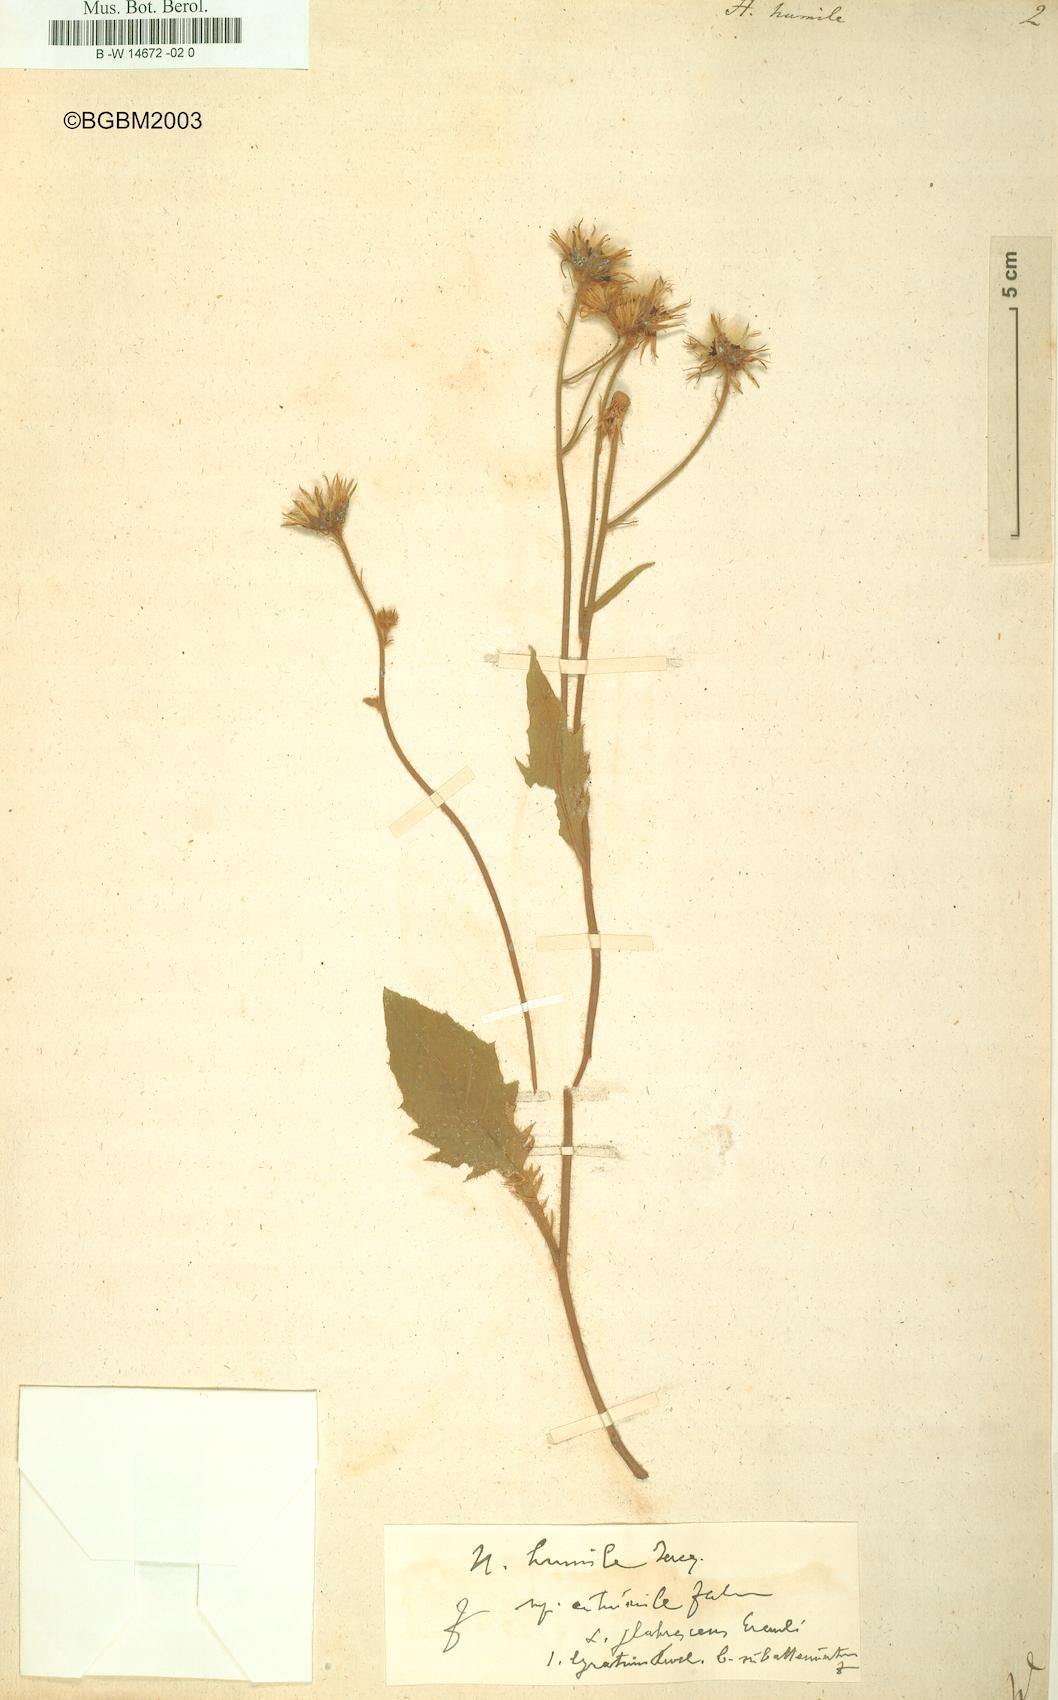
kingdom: Plantae
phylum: Tracheophyta
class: Magnoliopsida
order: Asterales
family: Asteraceae
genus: Hieracium
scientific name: Hieracium humile
